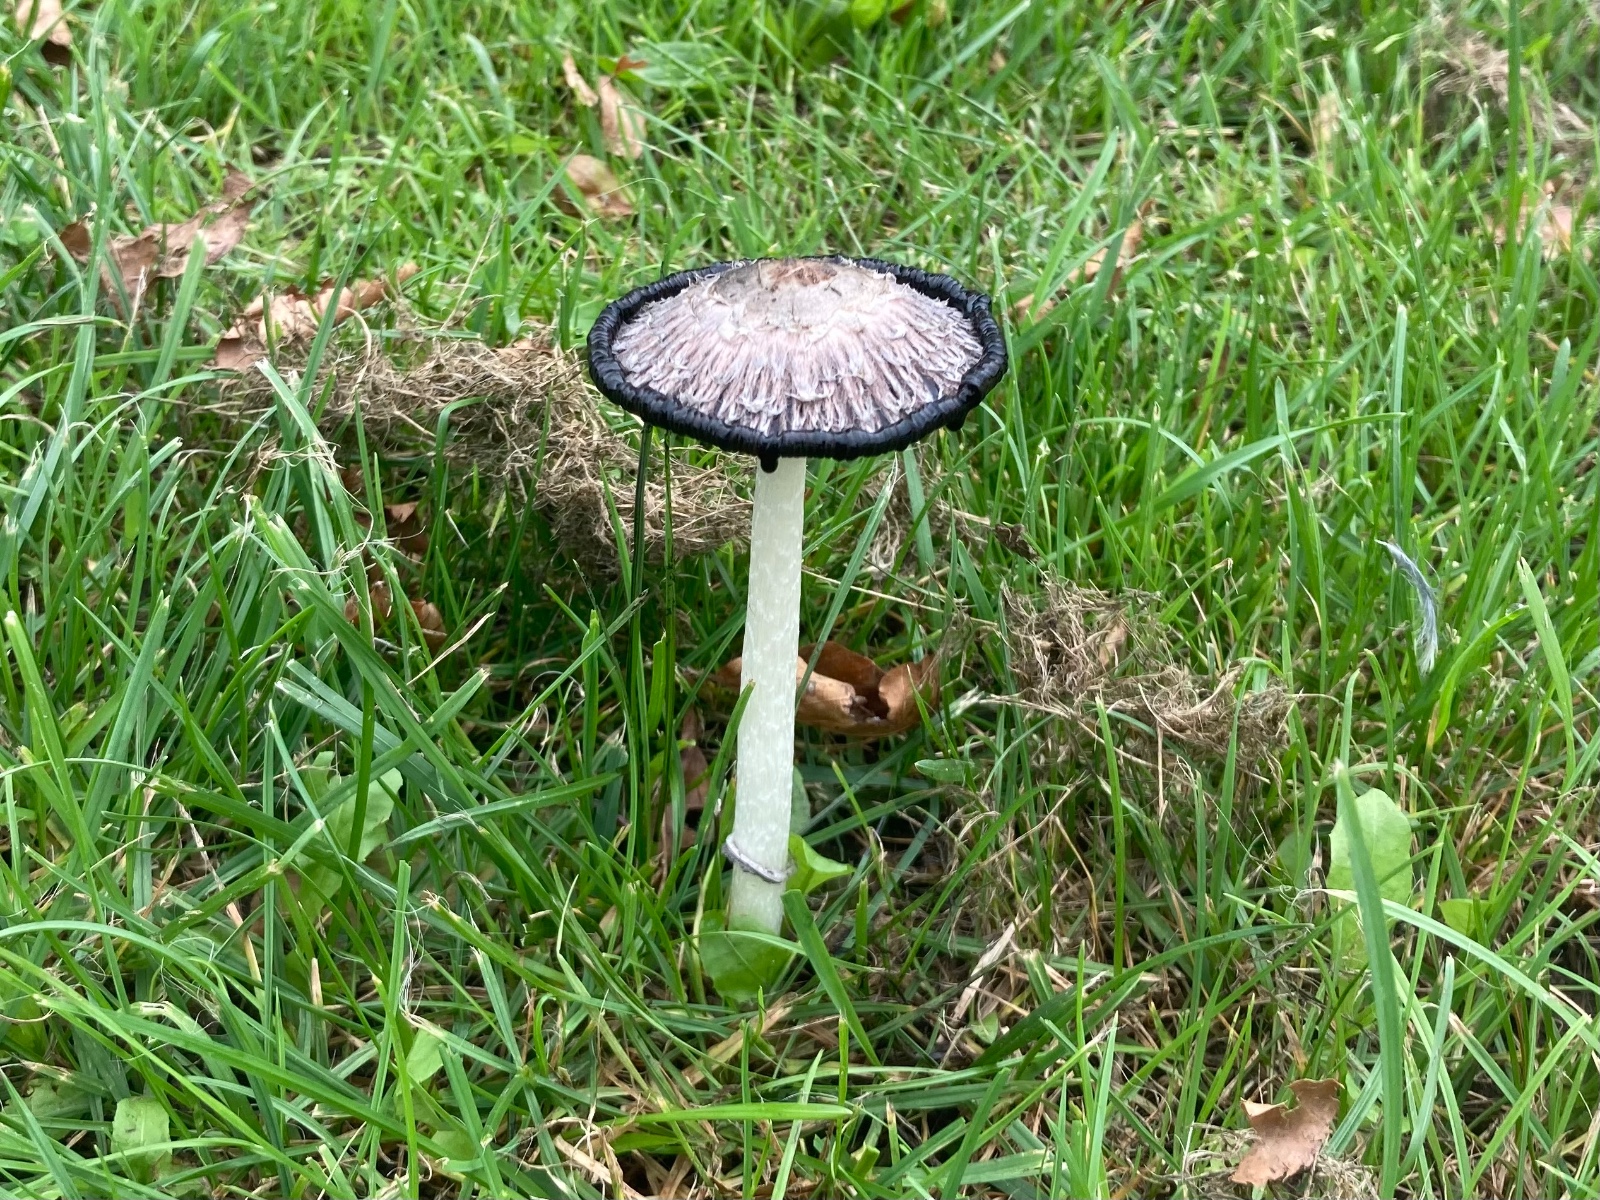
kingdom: Fungi
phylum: Basidiomycota
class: Agaricomycetes
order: Agaricales
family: Agaricaceae
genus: Coprinus
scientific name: Coprinus comatus
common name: stor parykhat
